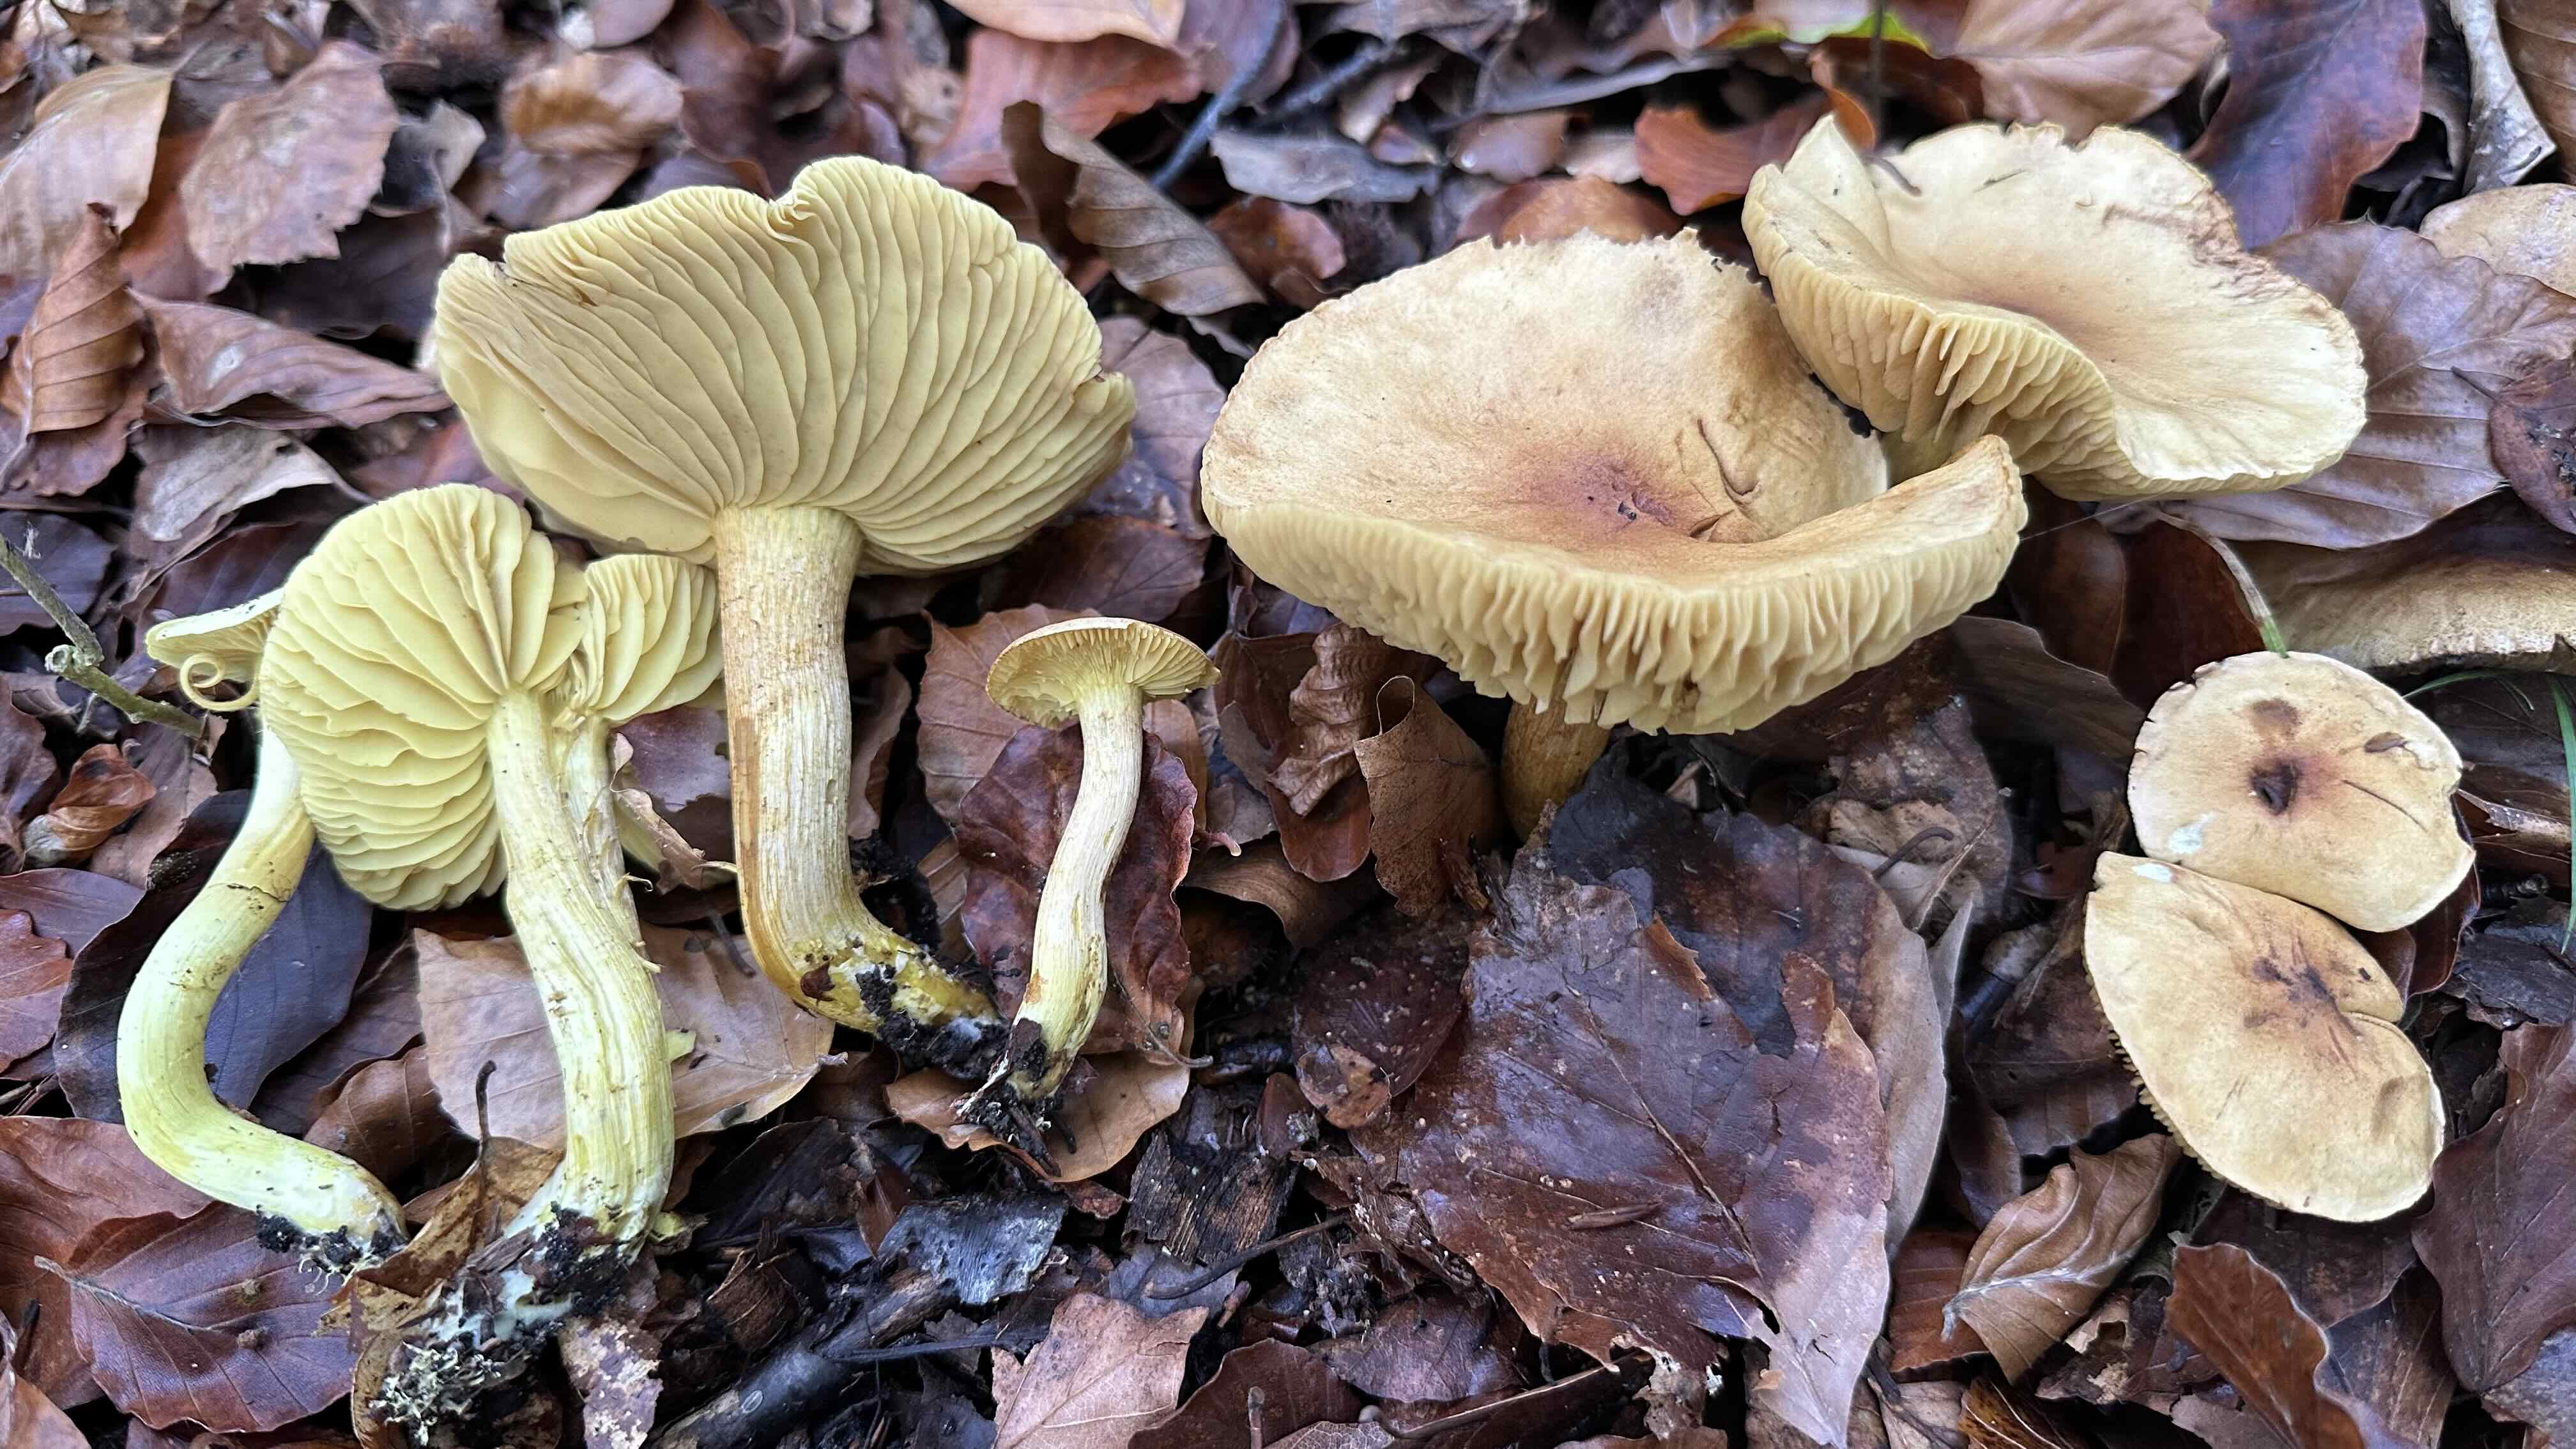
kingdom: Fungi
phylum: Basidiomycota
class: Agaricomycetes
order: Agaricales
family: Tricholomataceae
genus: Tricholoma
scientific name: Tricholoma sulphureum
